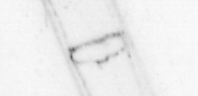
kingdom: Animalia
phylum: Chordata
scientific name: Chordata
